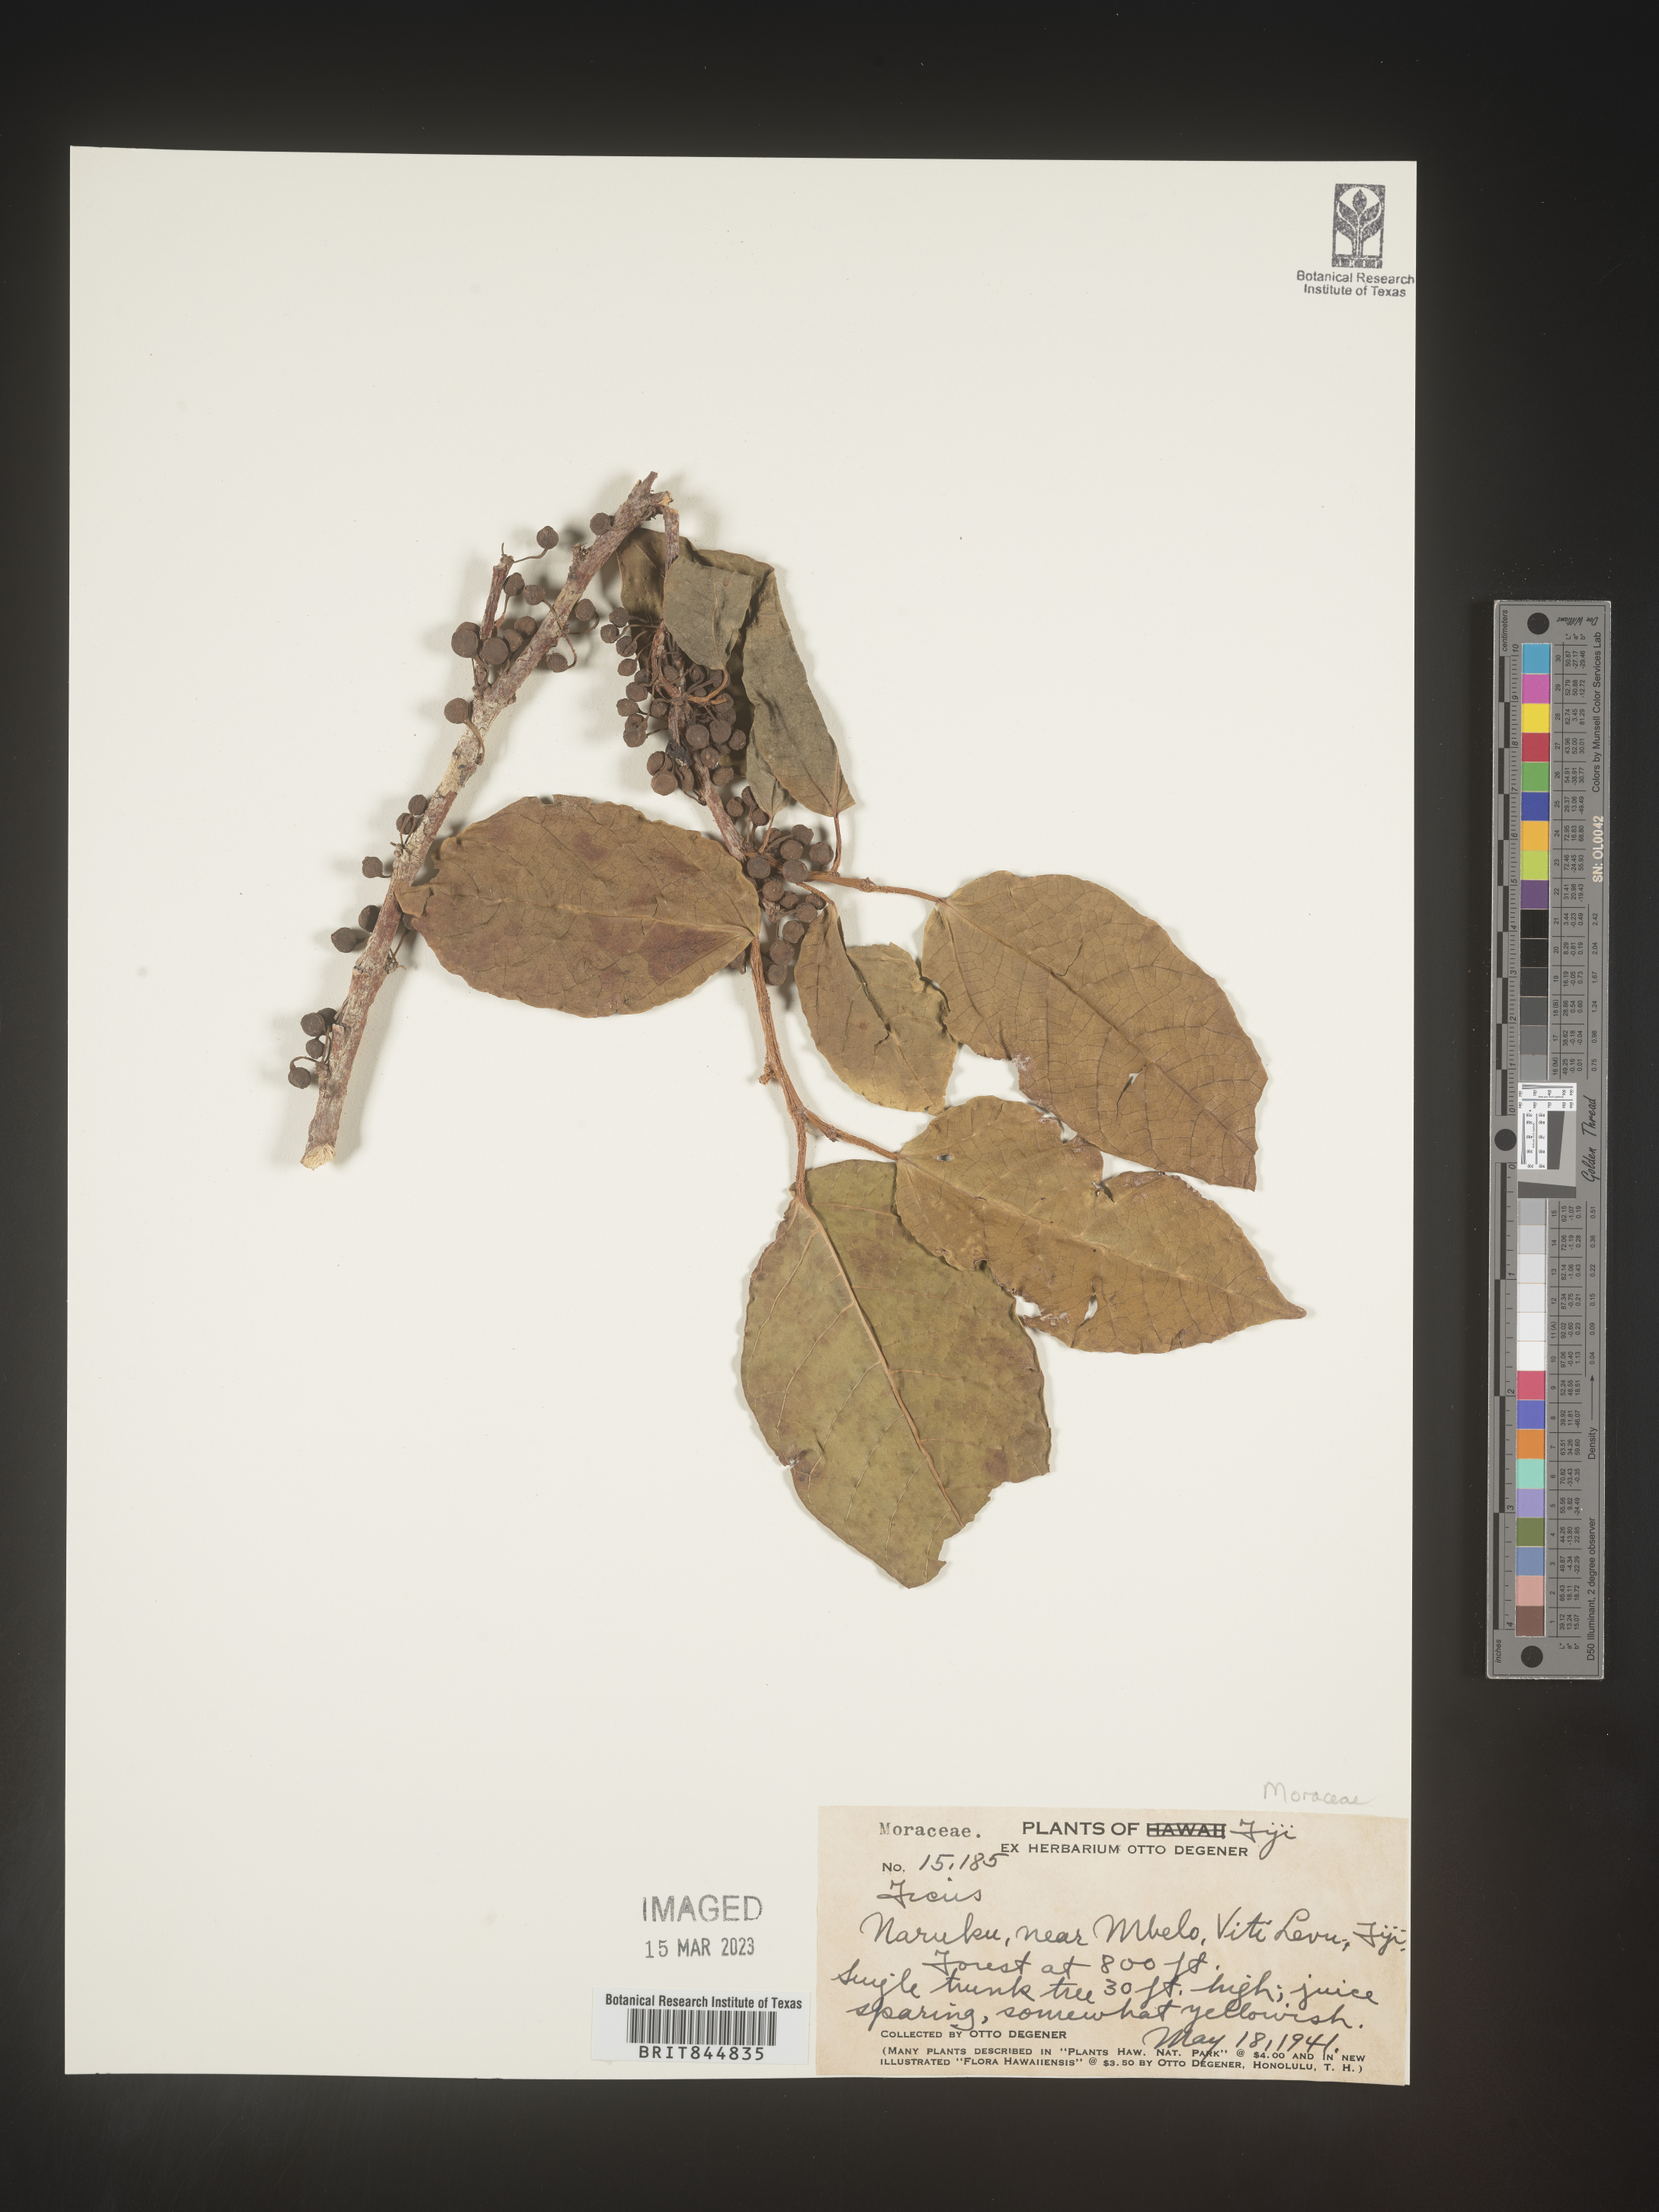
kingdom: Plantae
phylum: Tracheophyta
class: Magnoliopsida
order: Rosales
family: Moraceae
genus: Ficus
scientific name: Ficus
